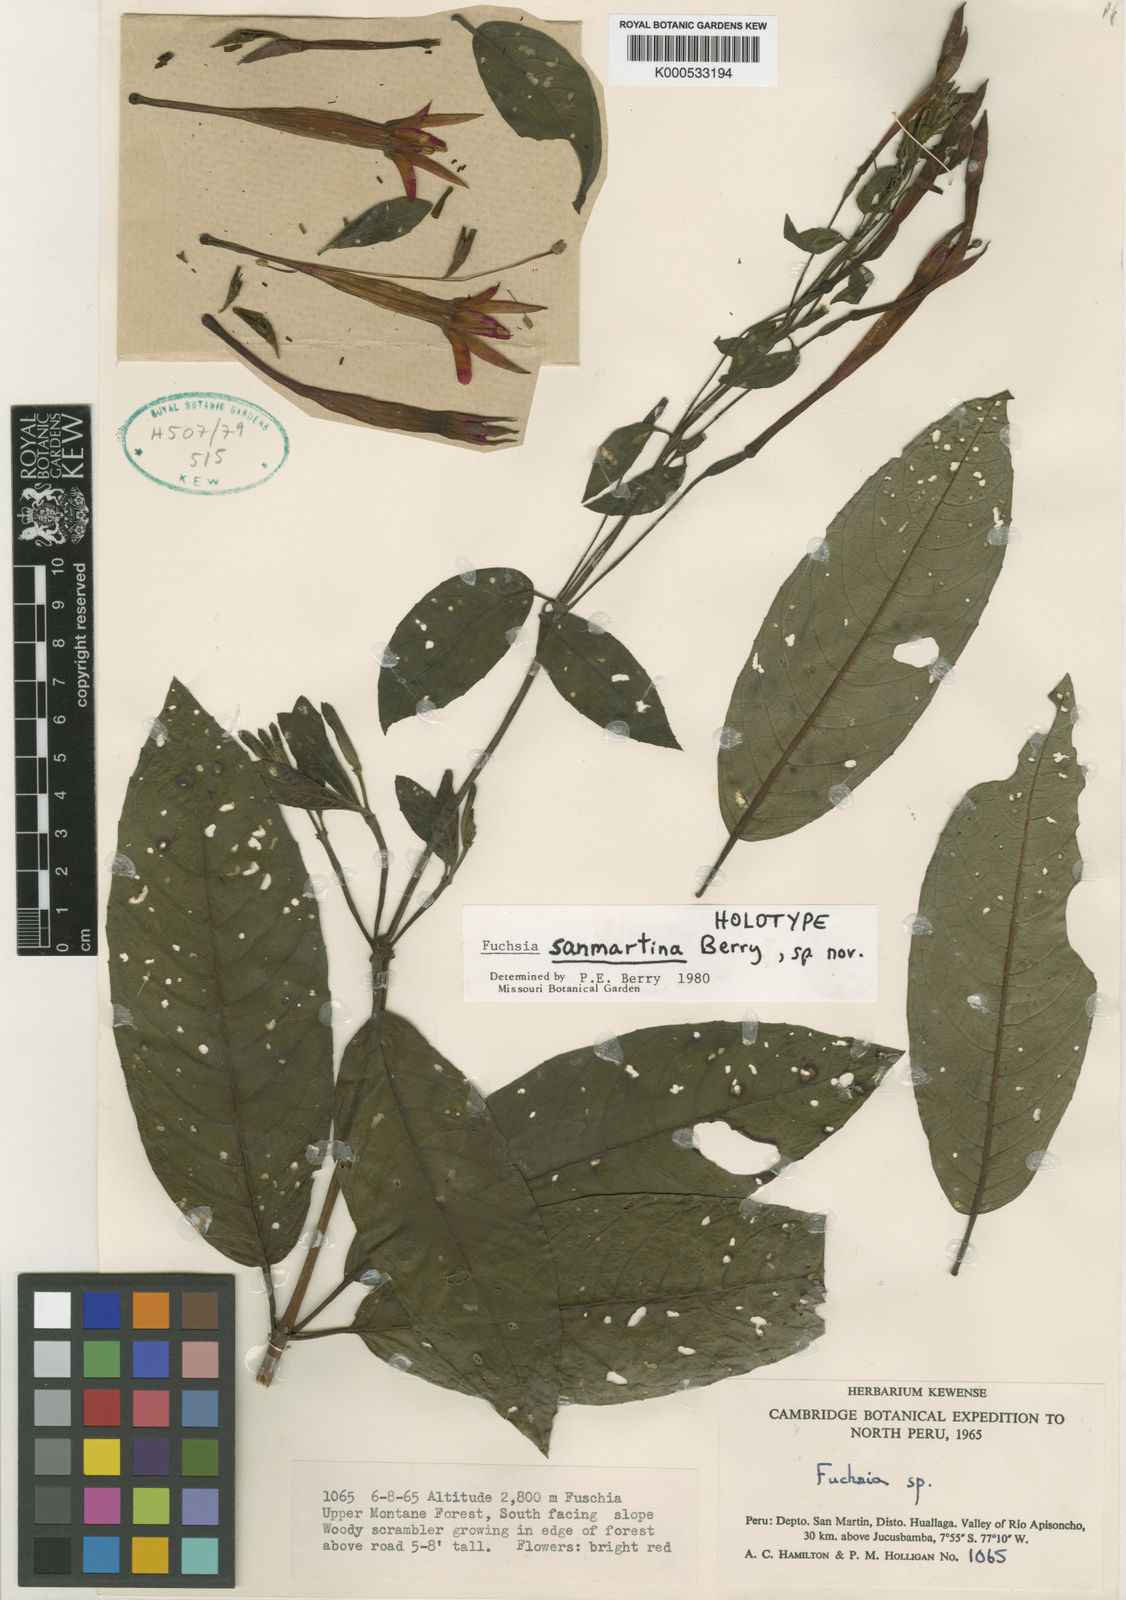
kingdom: Plantae
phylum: Tracheophyta
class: Magnoliopsida
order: Myrtales
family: Onagraceae
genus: Fuchsia
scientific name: Fuchsia sanmartina
